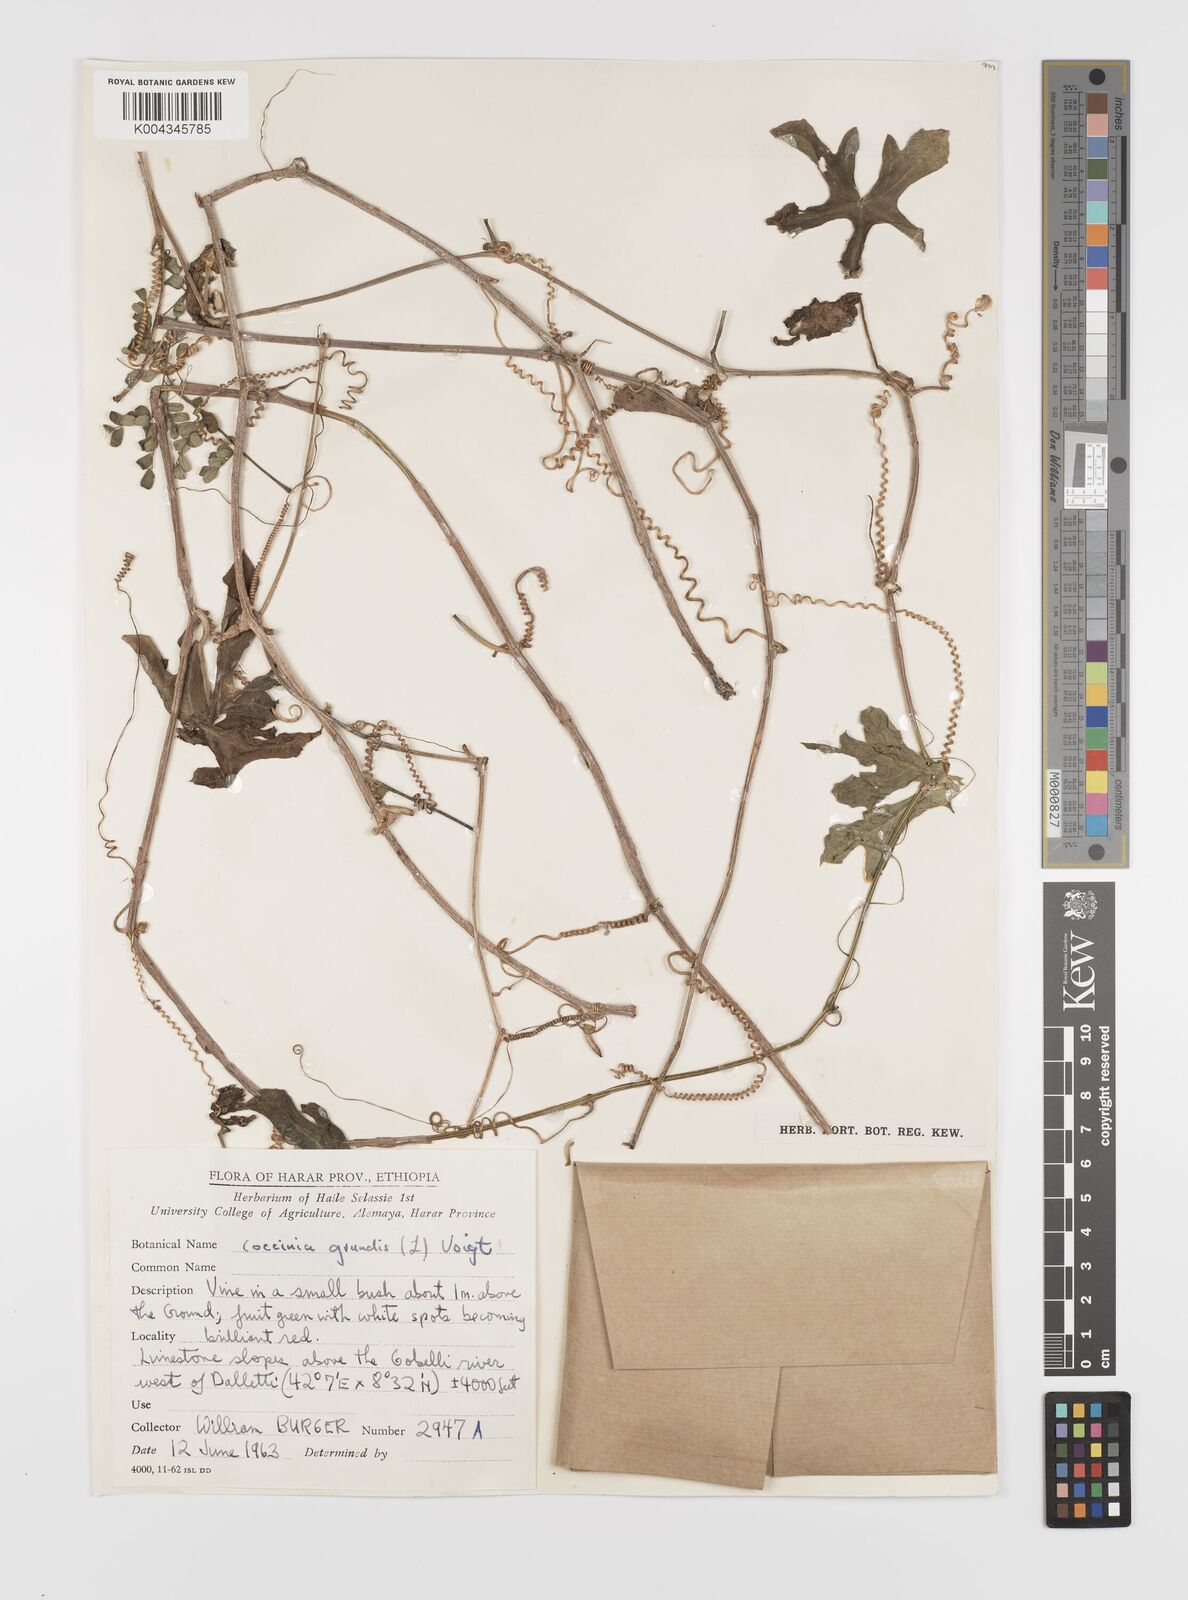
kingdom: Plantae
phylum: Tracheophyta
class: Magnoliopsida
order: Cucurbitales
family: Cucurbitaceae
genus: Coccinia
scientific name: Coccinia
